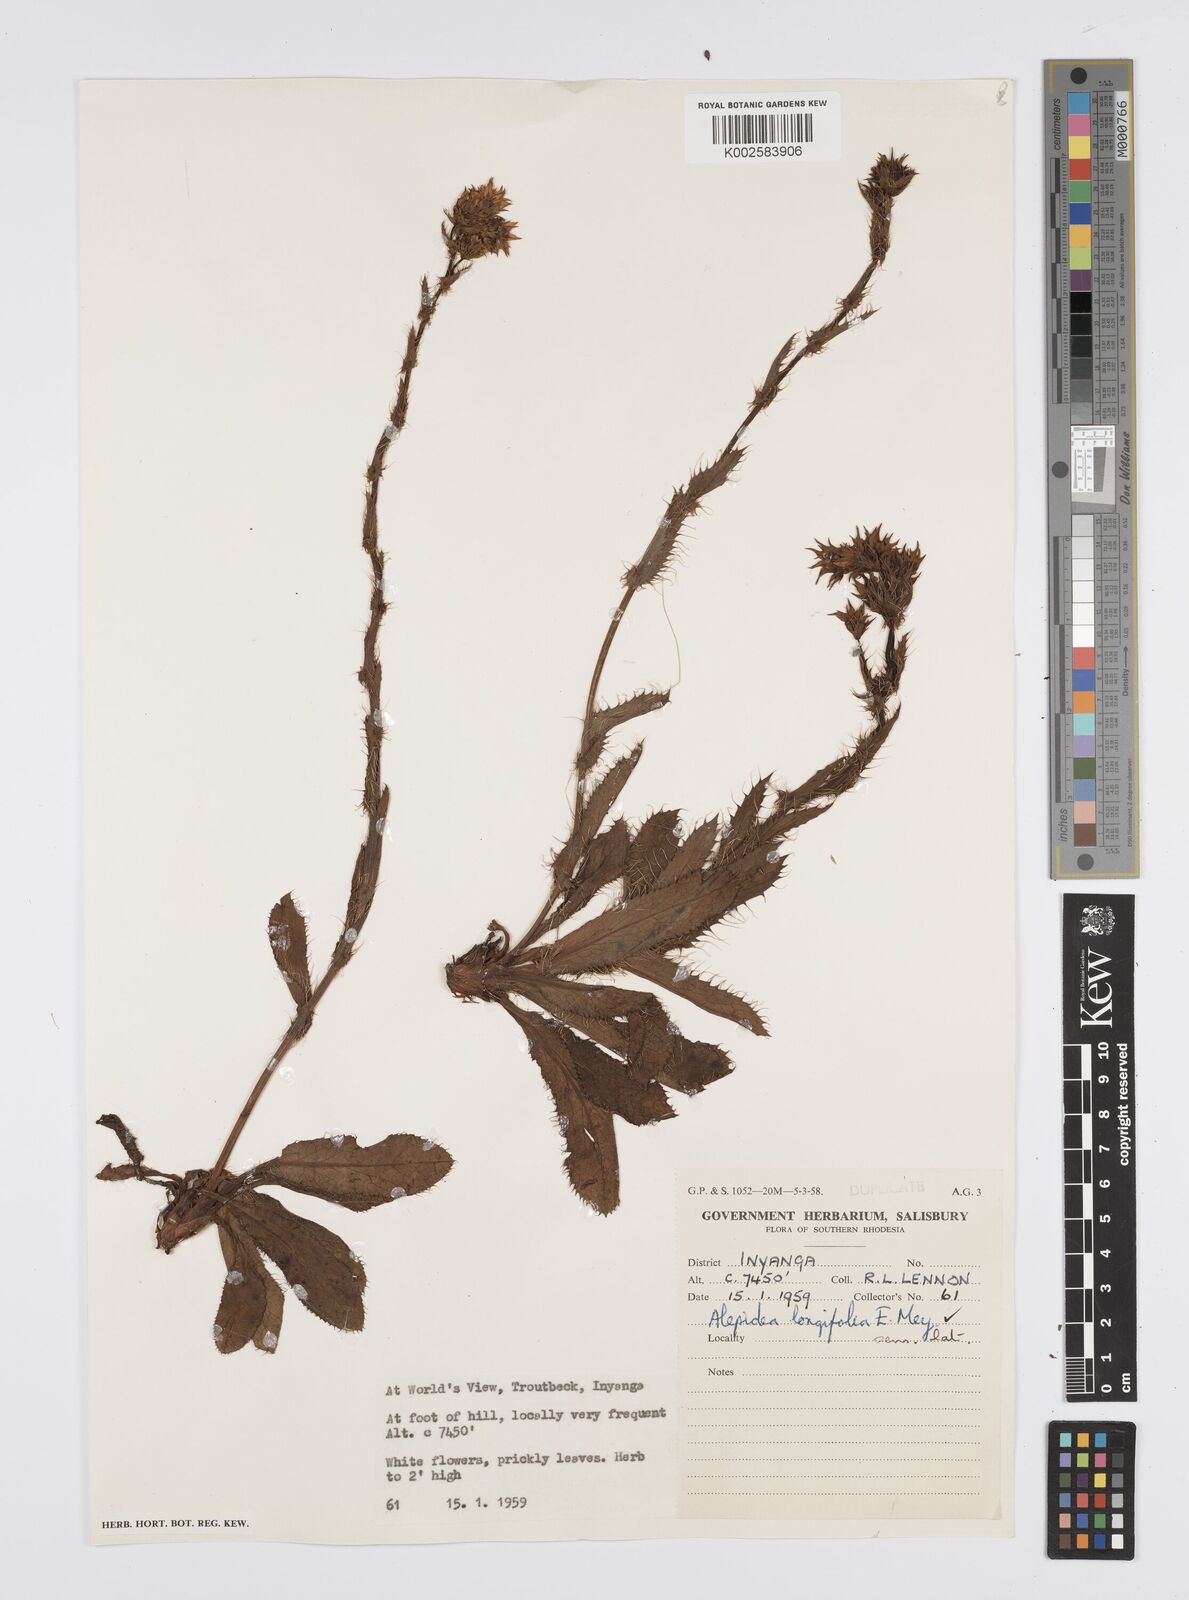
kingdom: Plantae
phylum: Tracheophyta
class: Magnoliopsida
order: Apiales
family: Apiaceae
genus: Alepidea
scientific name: Alepidea
